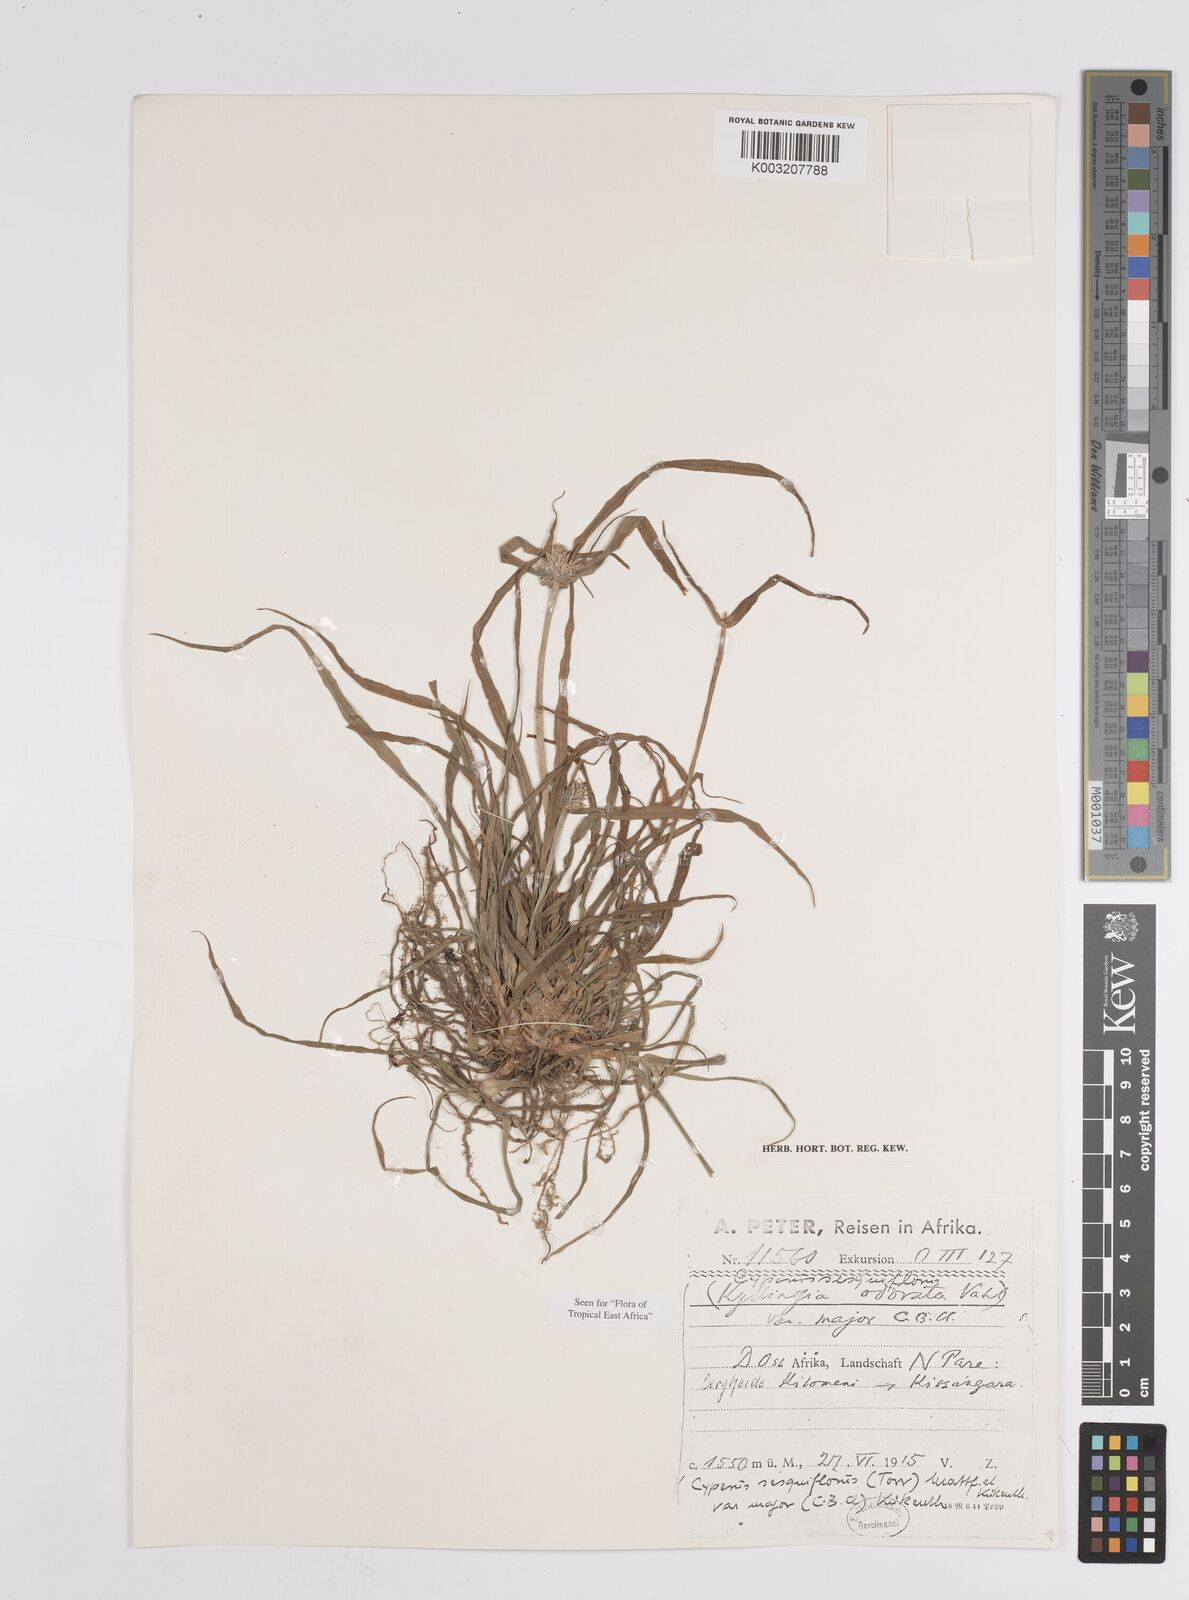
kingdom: Plantae
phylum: Tracheophyta
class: Liliopsida
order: Poales
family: Cyperaceae
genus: Cyperus
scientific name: Cyperus
